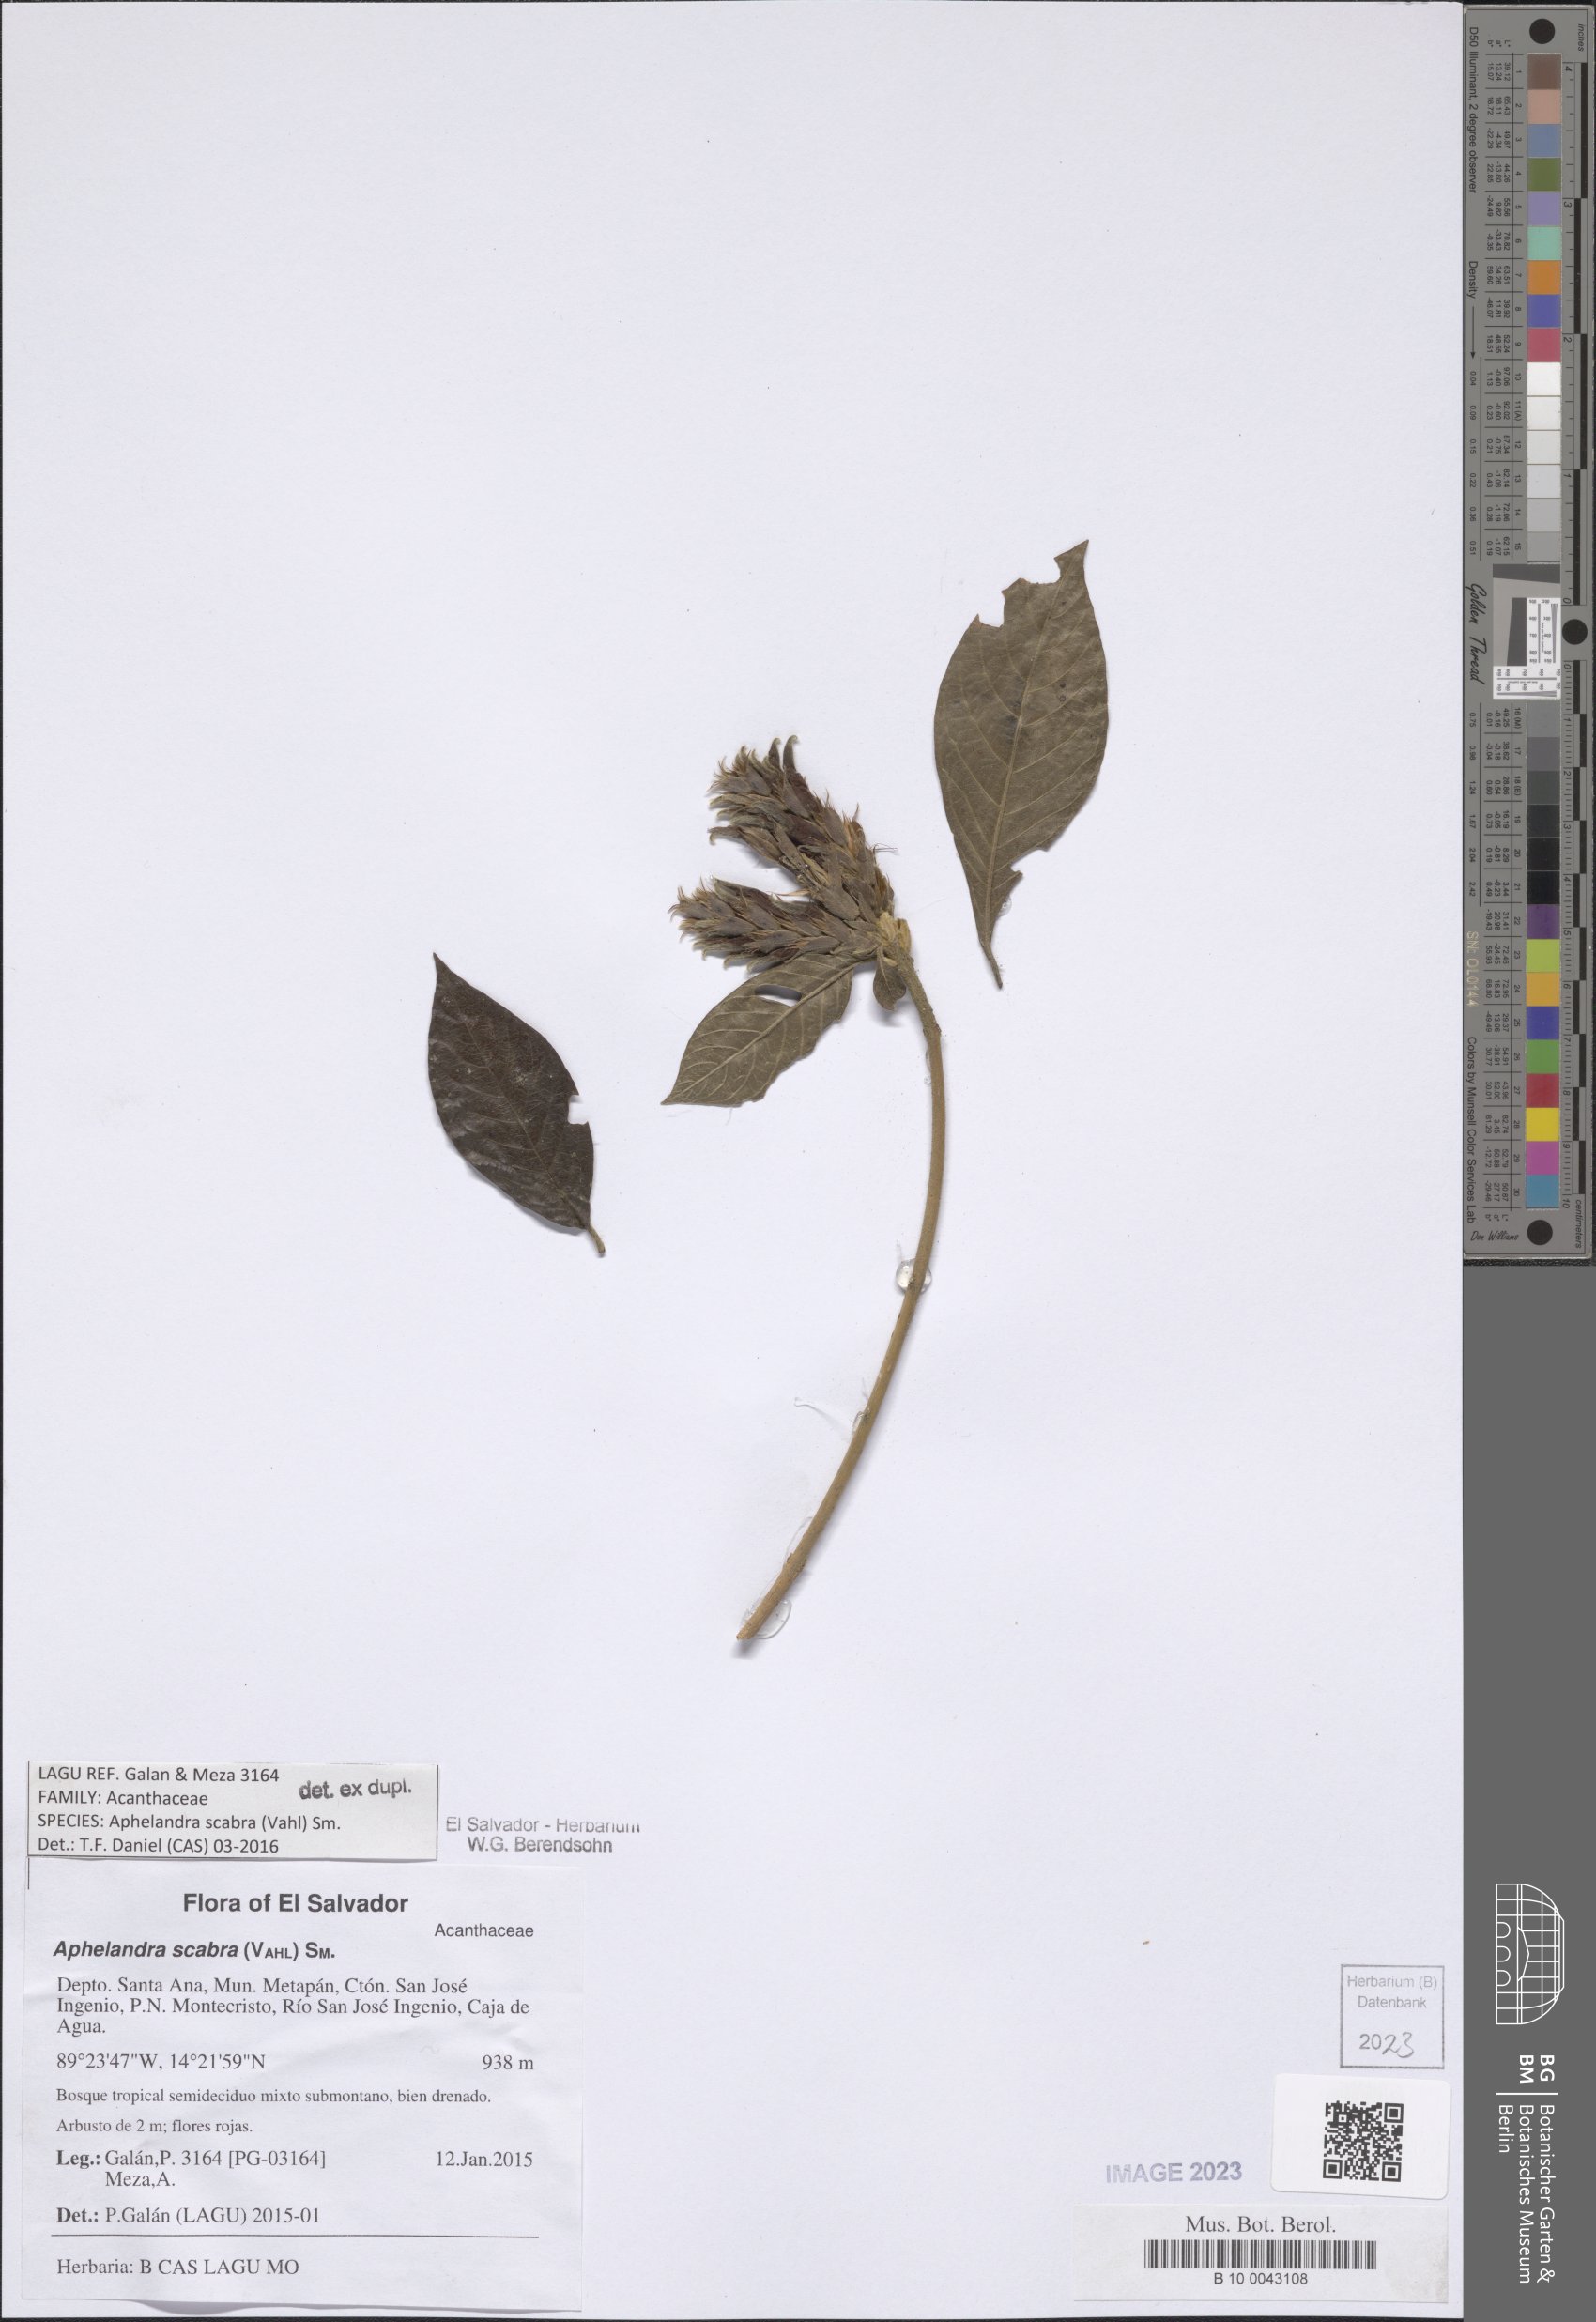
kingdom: Plantae
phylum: Tracheophyta
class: Magnoliopsida
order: Lamiales
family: Acanthaceae
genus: Aphelandra
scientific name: Aphelandra scabra
